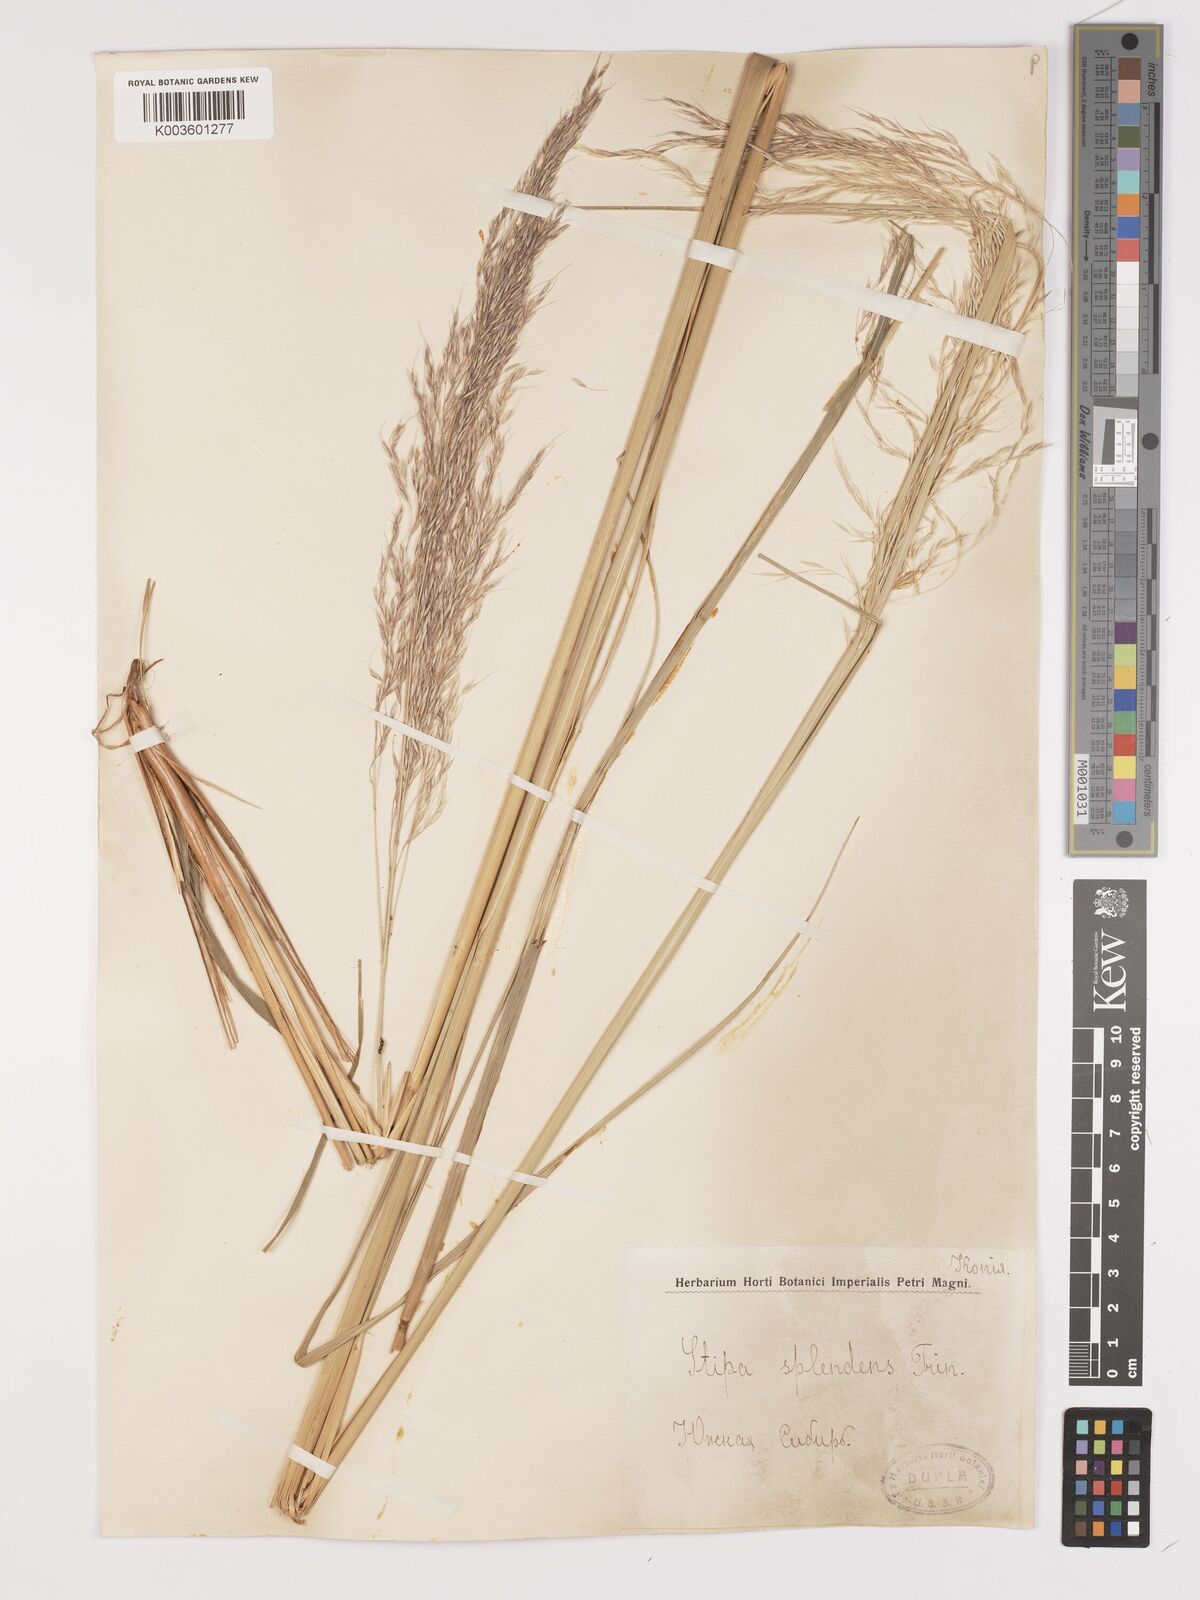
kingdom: Plantae
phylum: Tracheophyta
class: Liliopsida
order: Poales
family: Poaceae
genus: Neotrinia
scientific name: Neotrinia splendens
